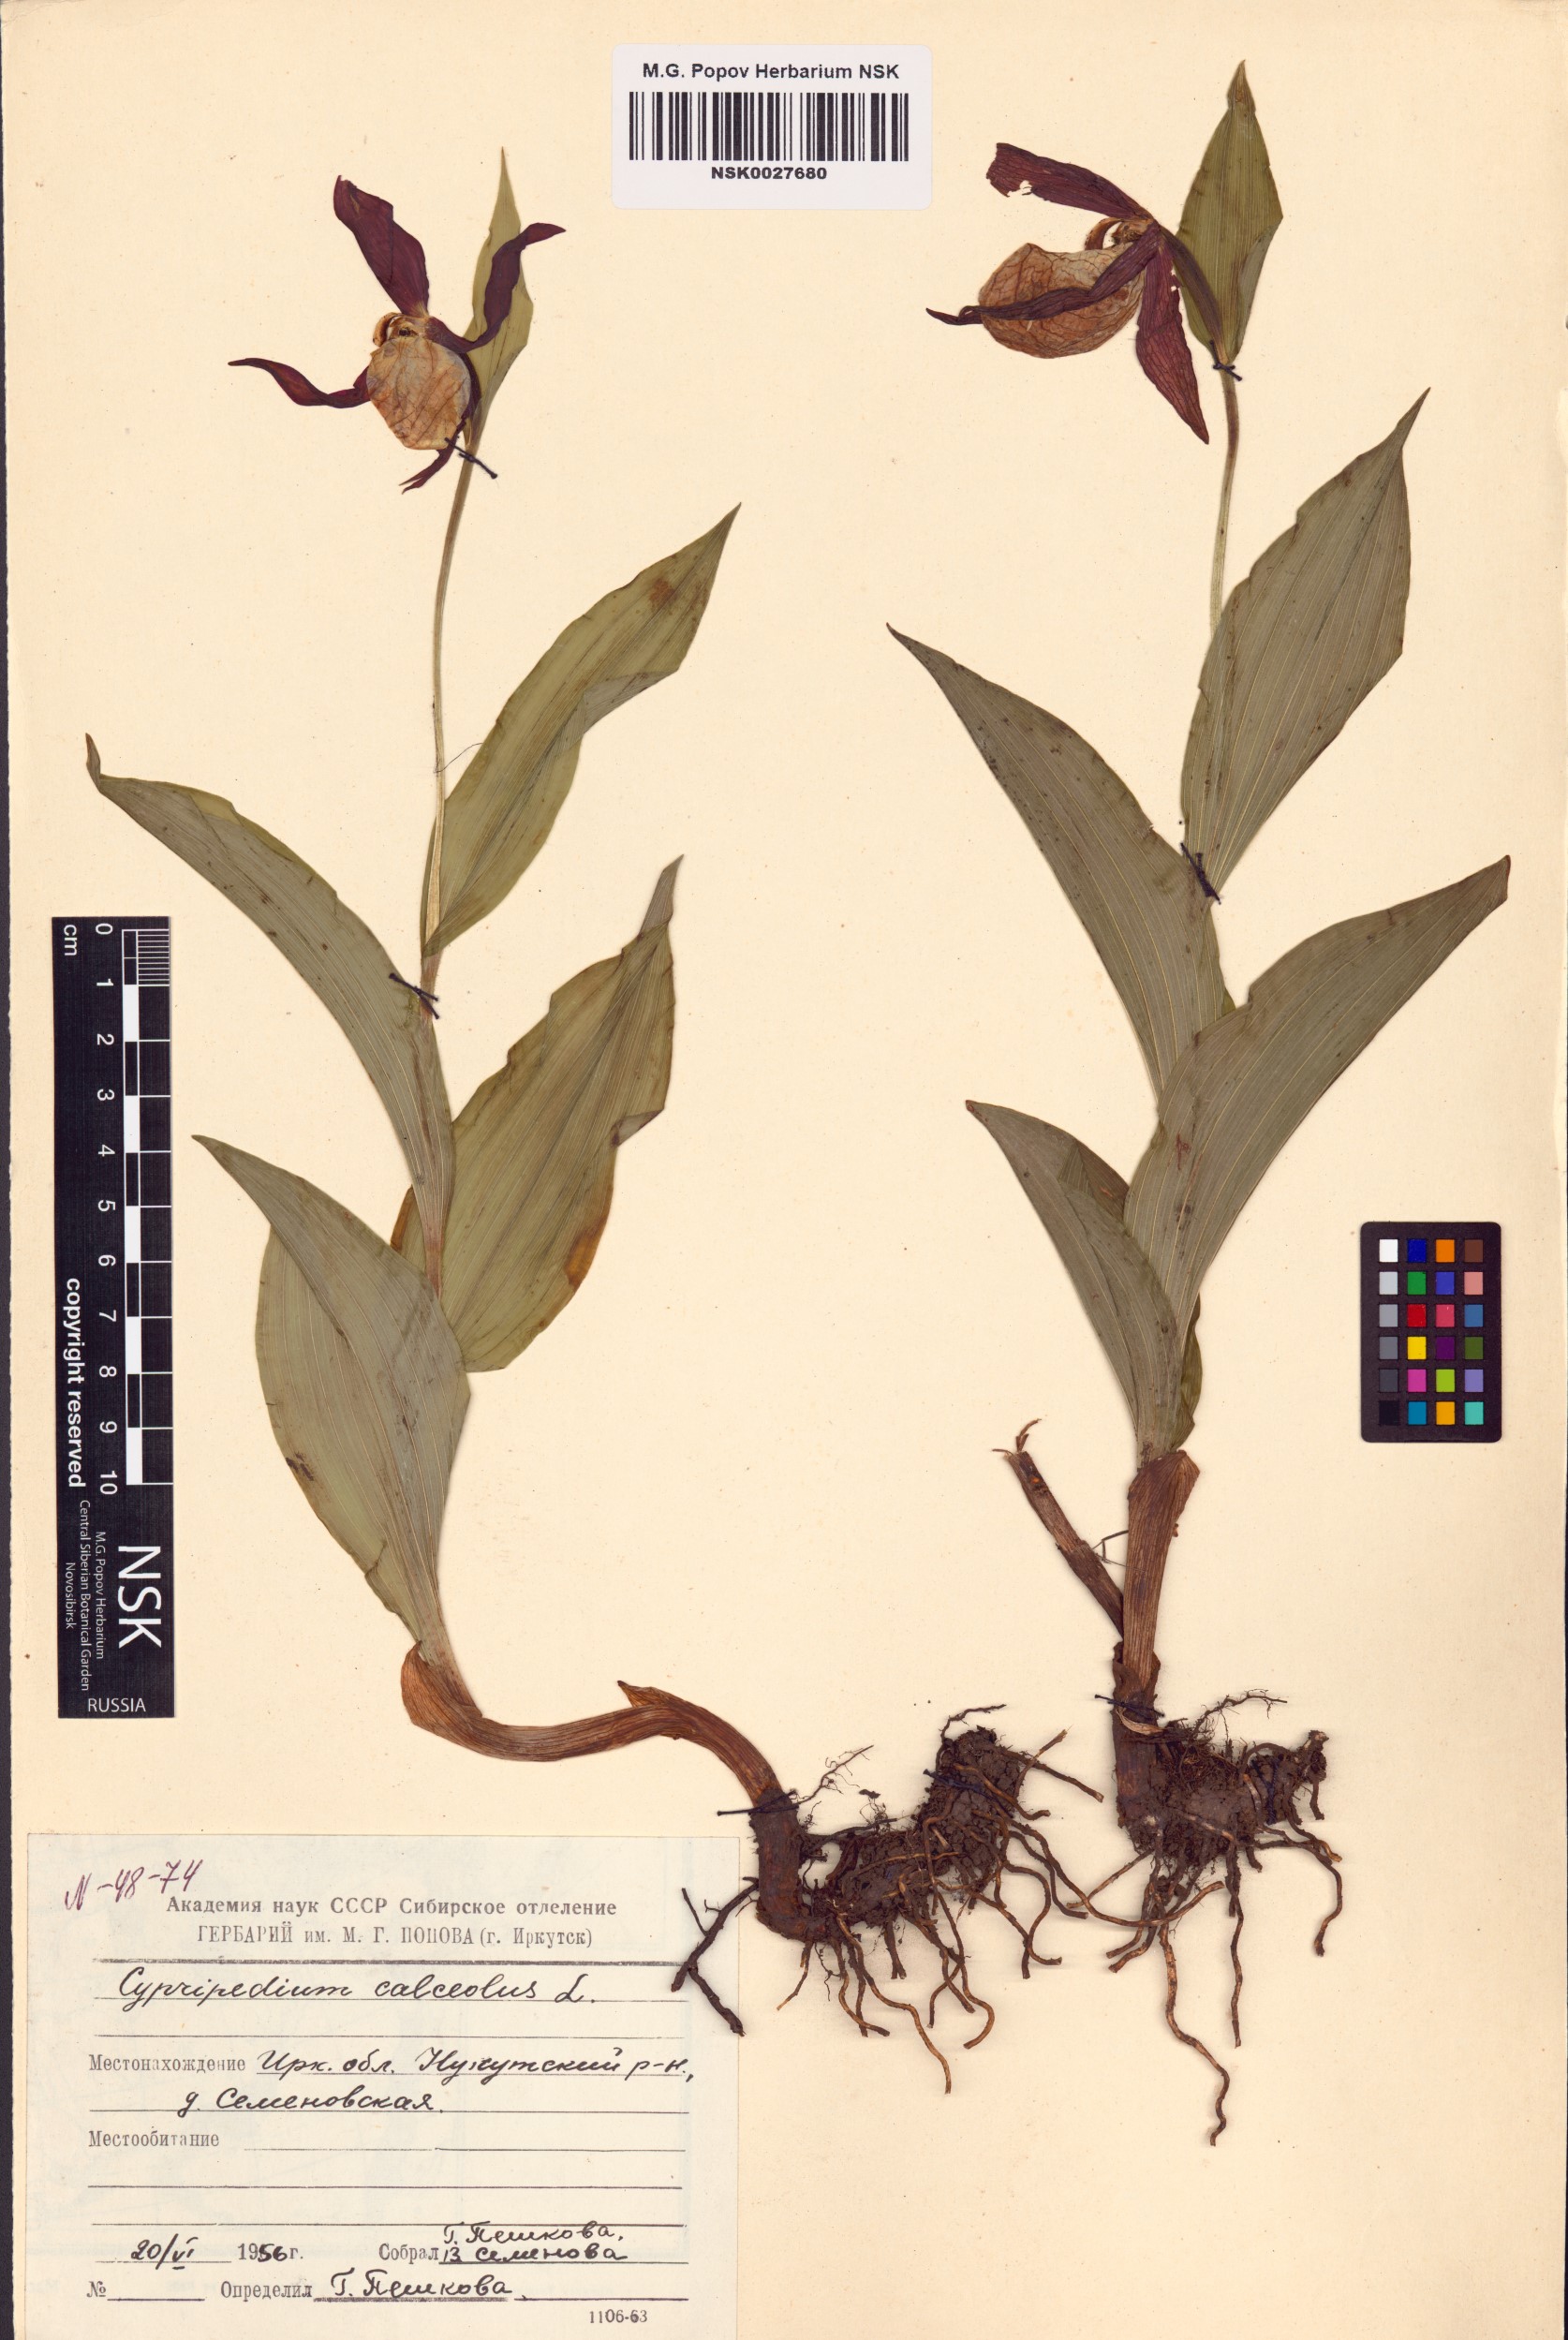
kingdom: Plantae
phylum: Tracheophyta
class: Liliopsida
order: Asparagales
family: Orchidaceae
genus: Cypripedium
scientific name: Cypripedium calceolus
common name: Lady's-slipper
